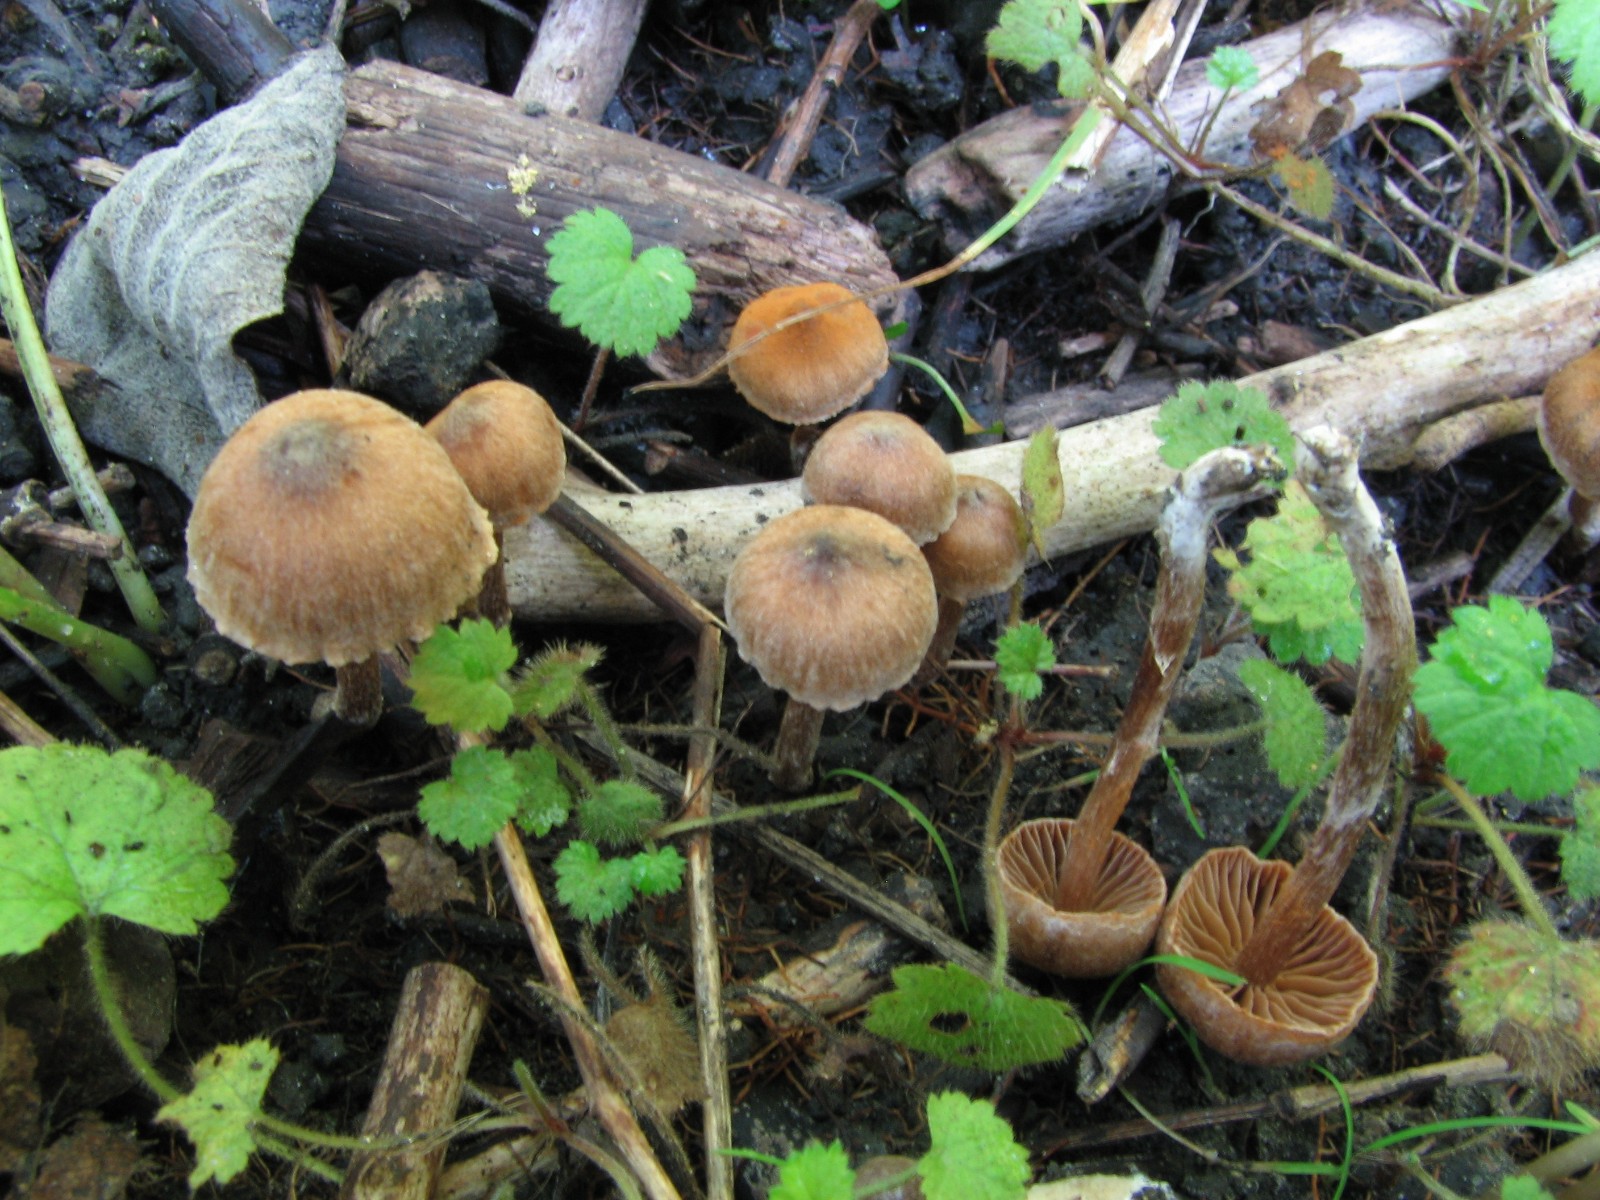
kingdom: Fungi
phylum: Basidiomycota
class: Agaricomycetes
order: Agaricales
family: Cortinariaceae
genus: Cortinarius
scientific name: Cortinarius scotoides
